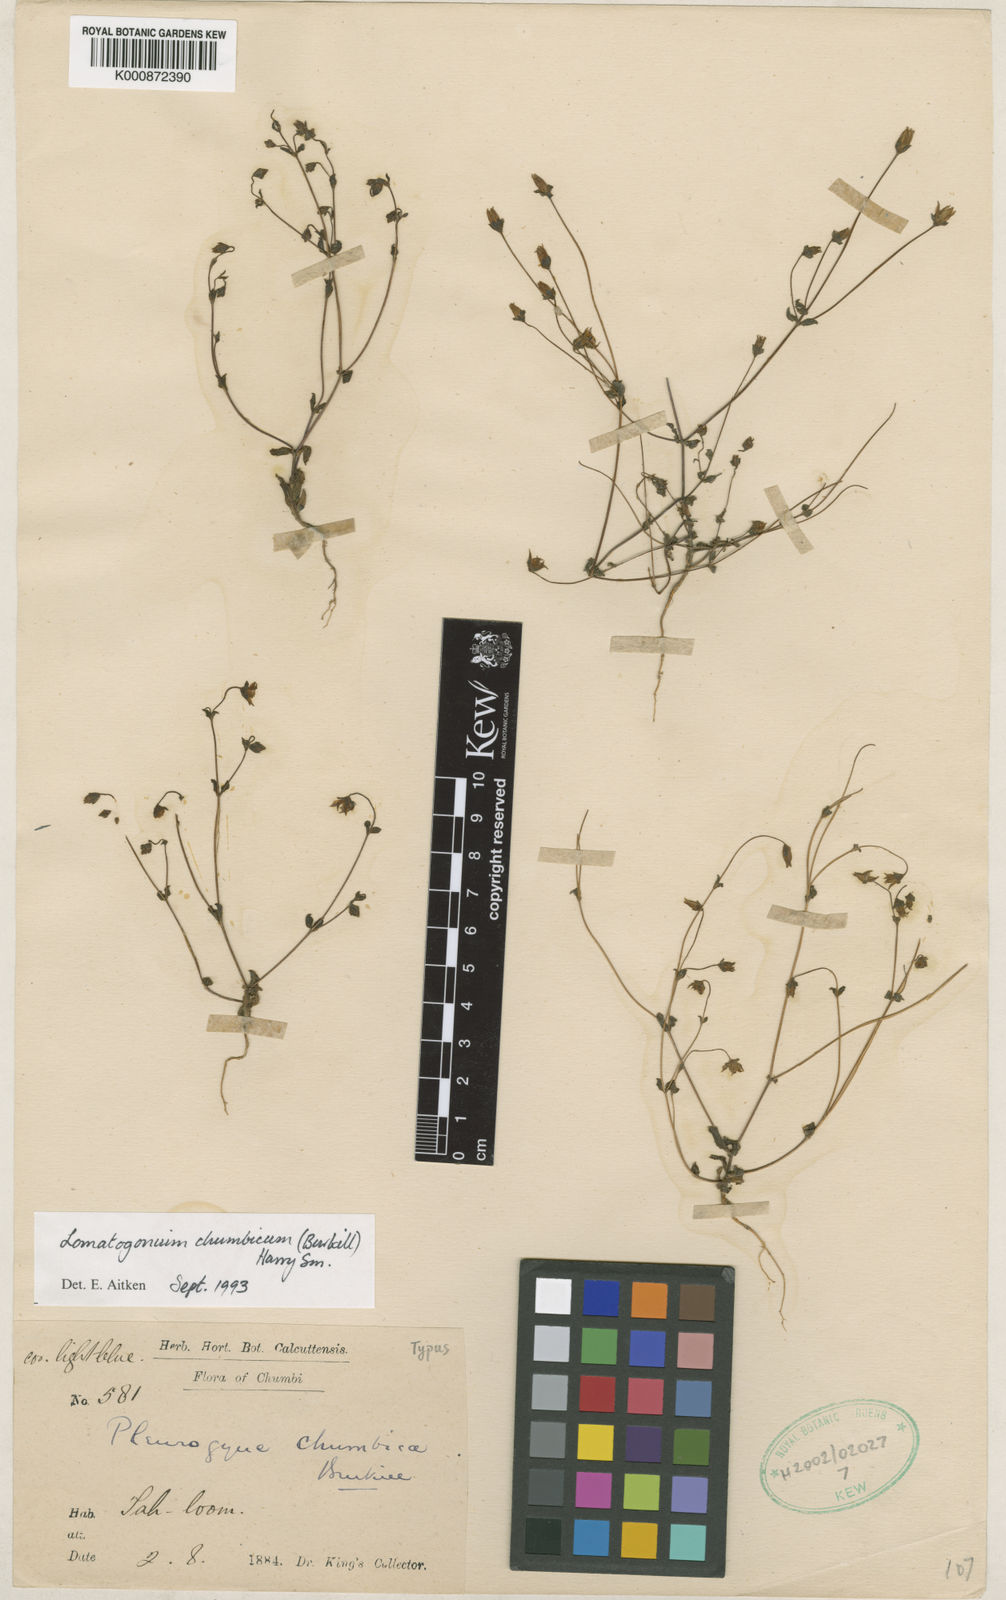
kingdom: Plantae
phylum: Tracheophyta
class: Magnoliopsida
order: Gentianales
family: Gentianaceae
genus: Lomatogonium
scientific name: Lomatogonium chumbicum
